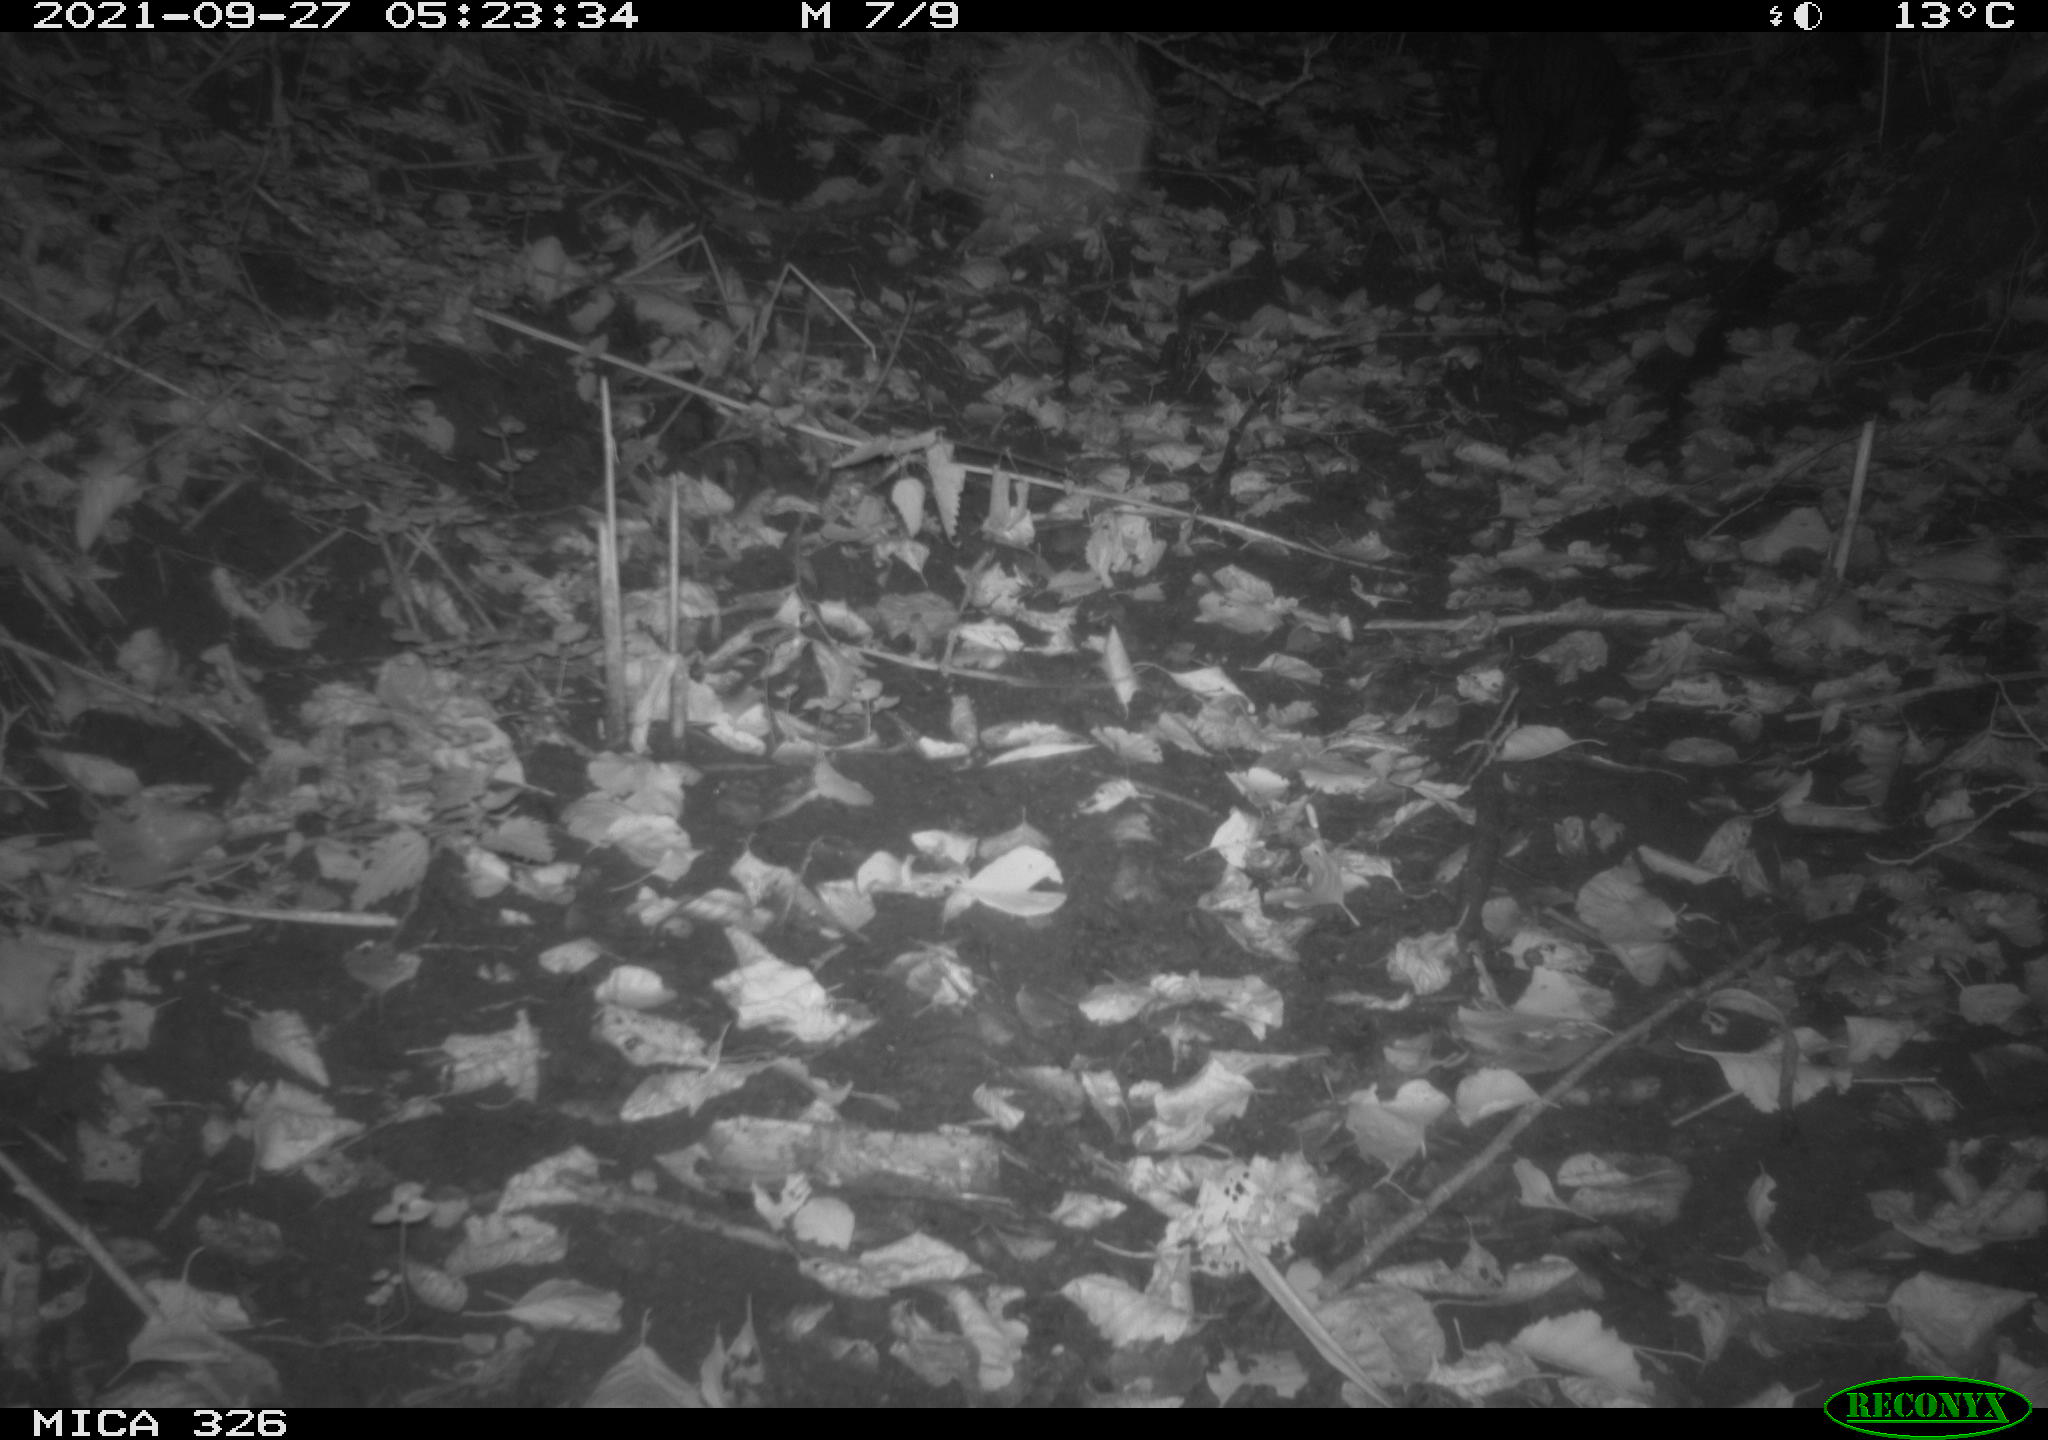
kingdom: Animalia
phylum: Chordata
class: Mammalia
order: Rodentia
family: Myocastoridae
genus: Myocastor
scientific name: Myocastor coypus
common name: Coypu
